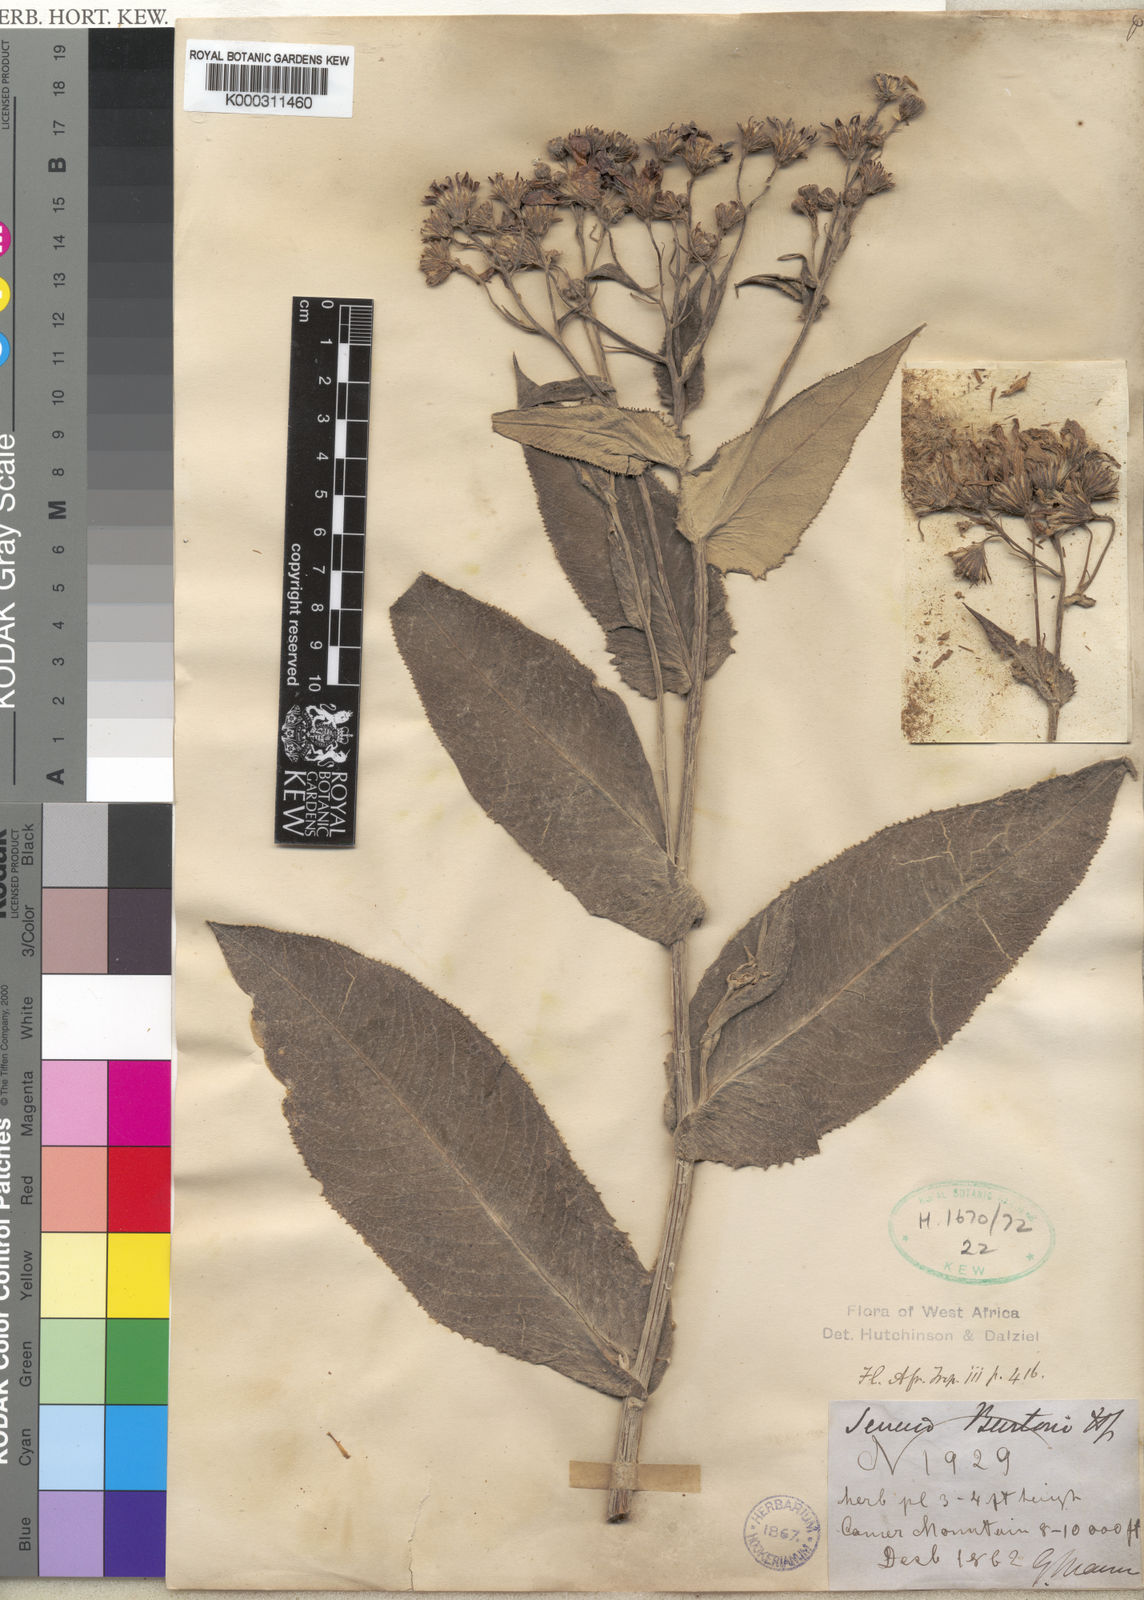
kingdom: Plantae
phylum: Tracheophyta
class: Magnoliopsida
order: Asterales
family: Asteraceae
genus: Senecio
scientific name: Senecio burtonii
